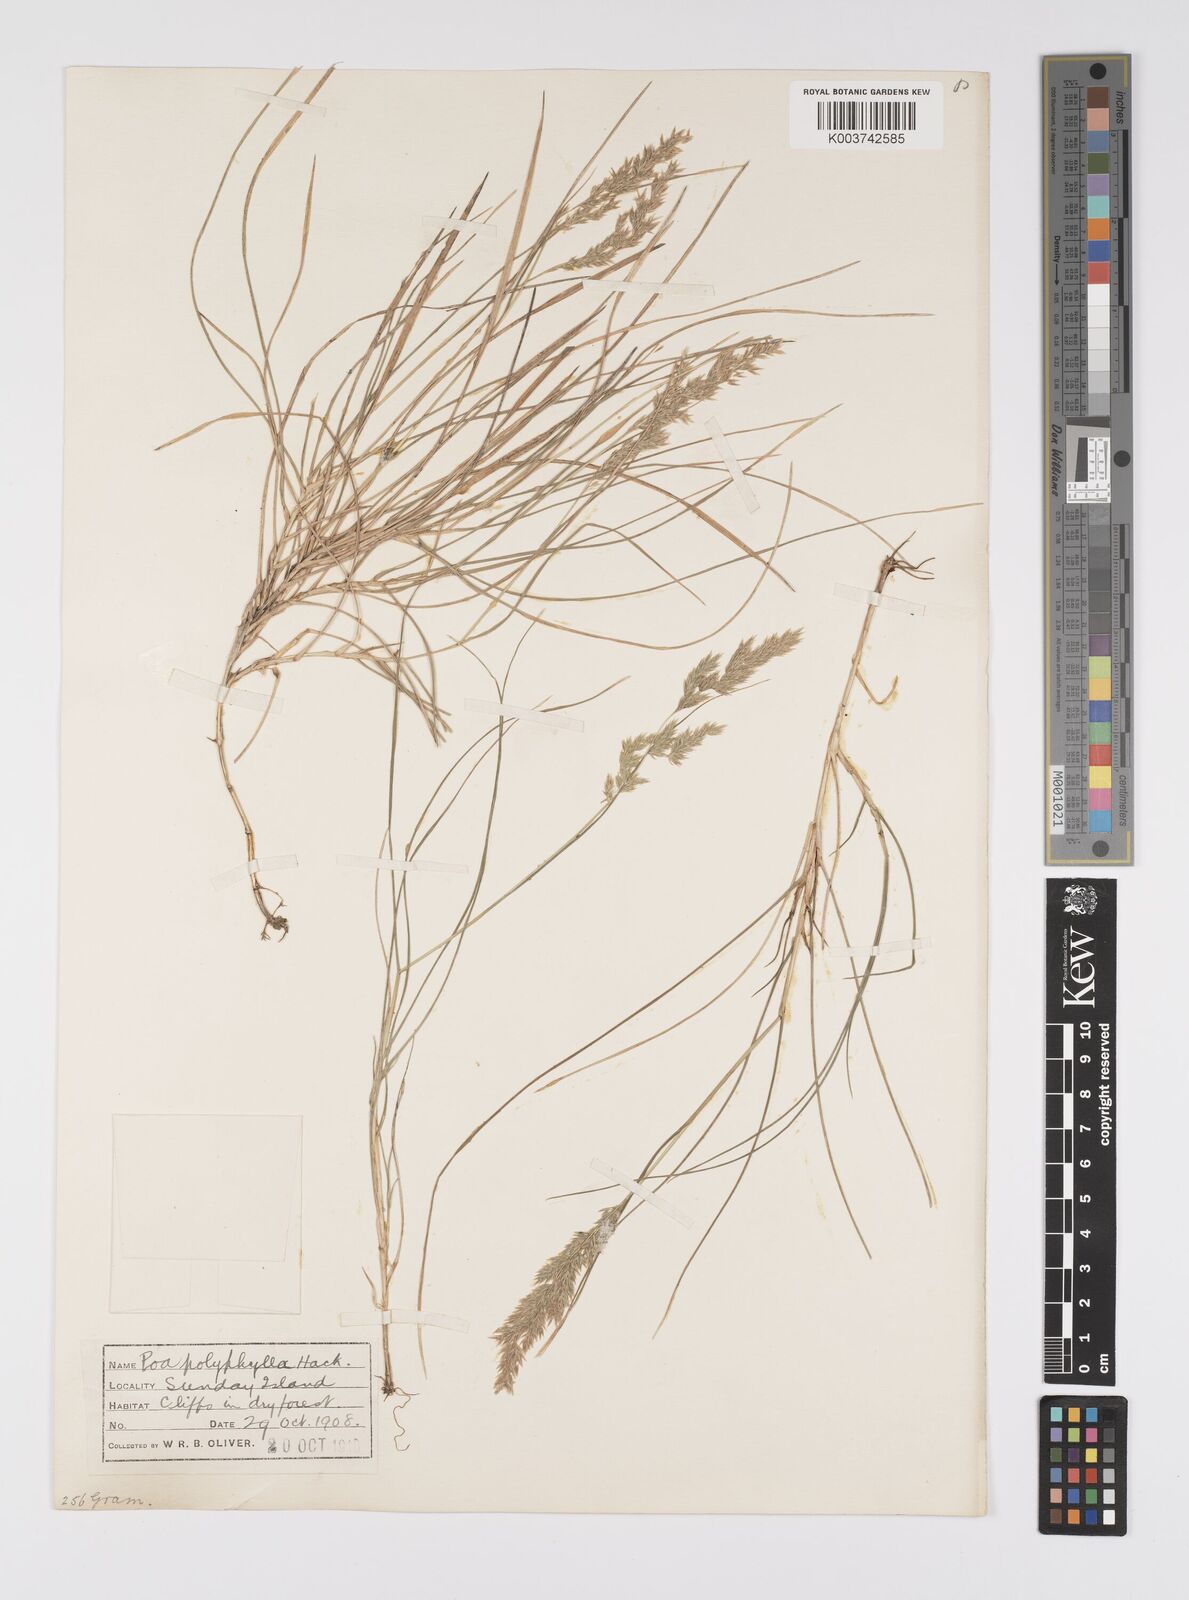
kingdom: Plantae
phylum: Tracheophyta
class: Liliopsida
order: Poales
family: Poaceae
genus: Poa
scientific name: Poa anceps
